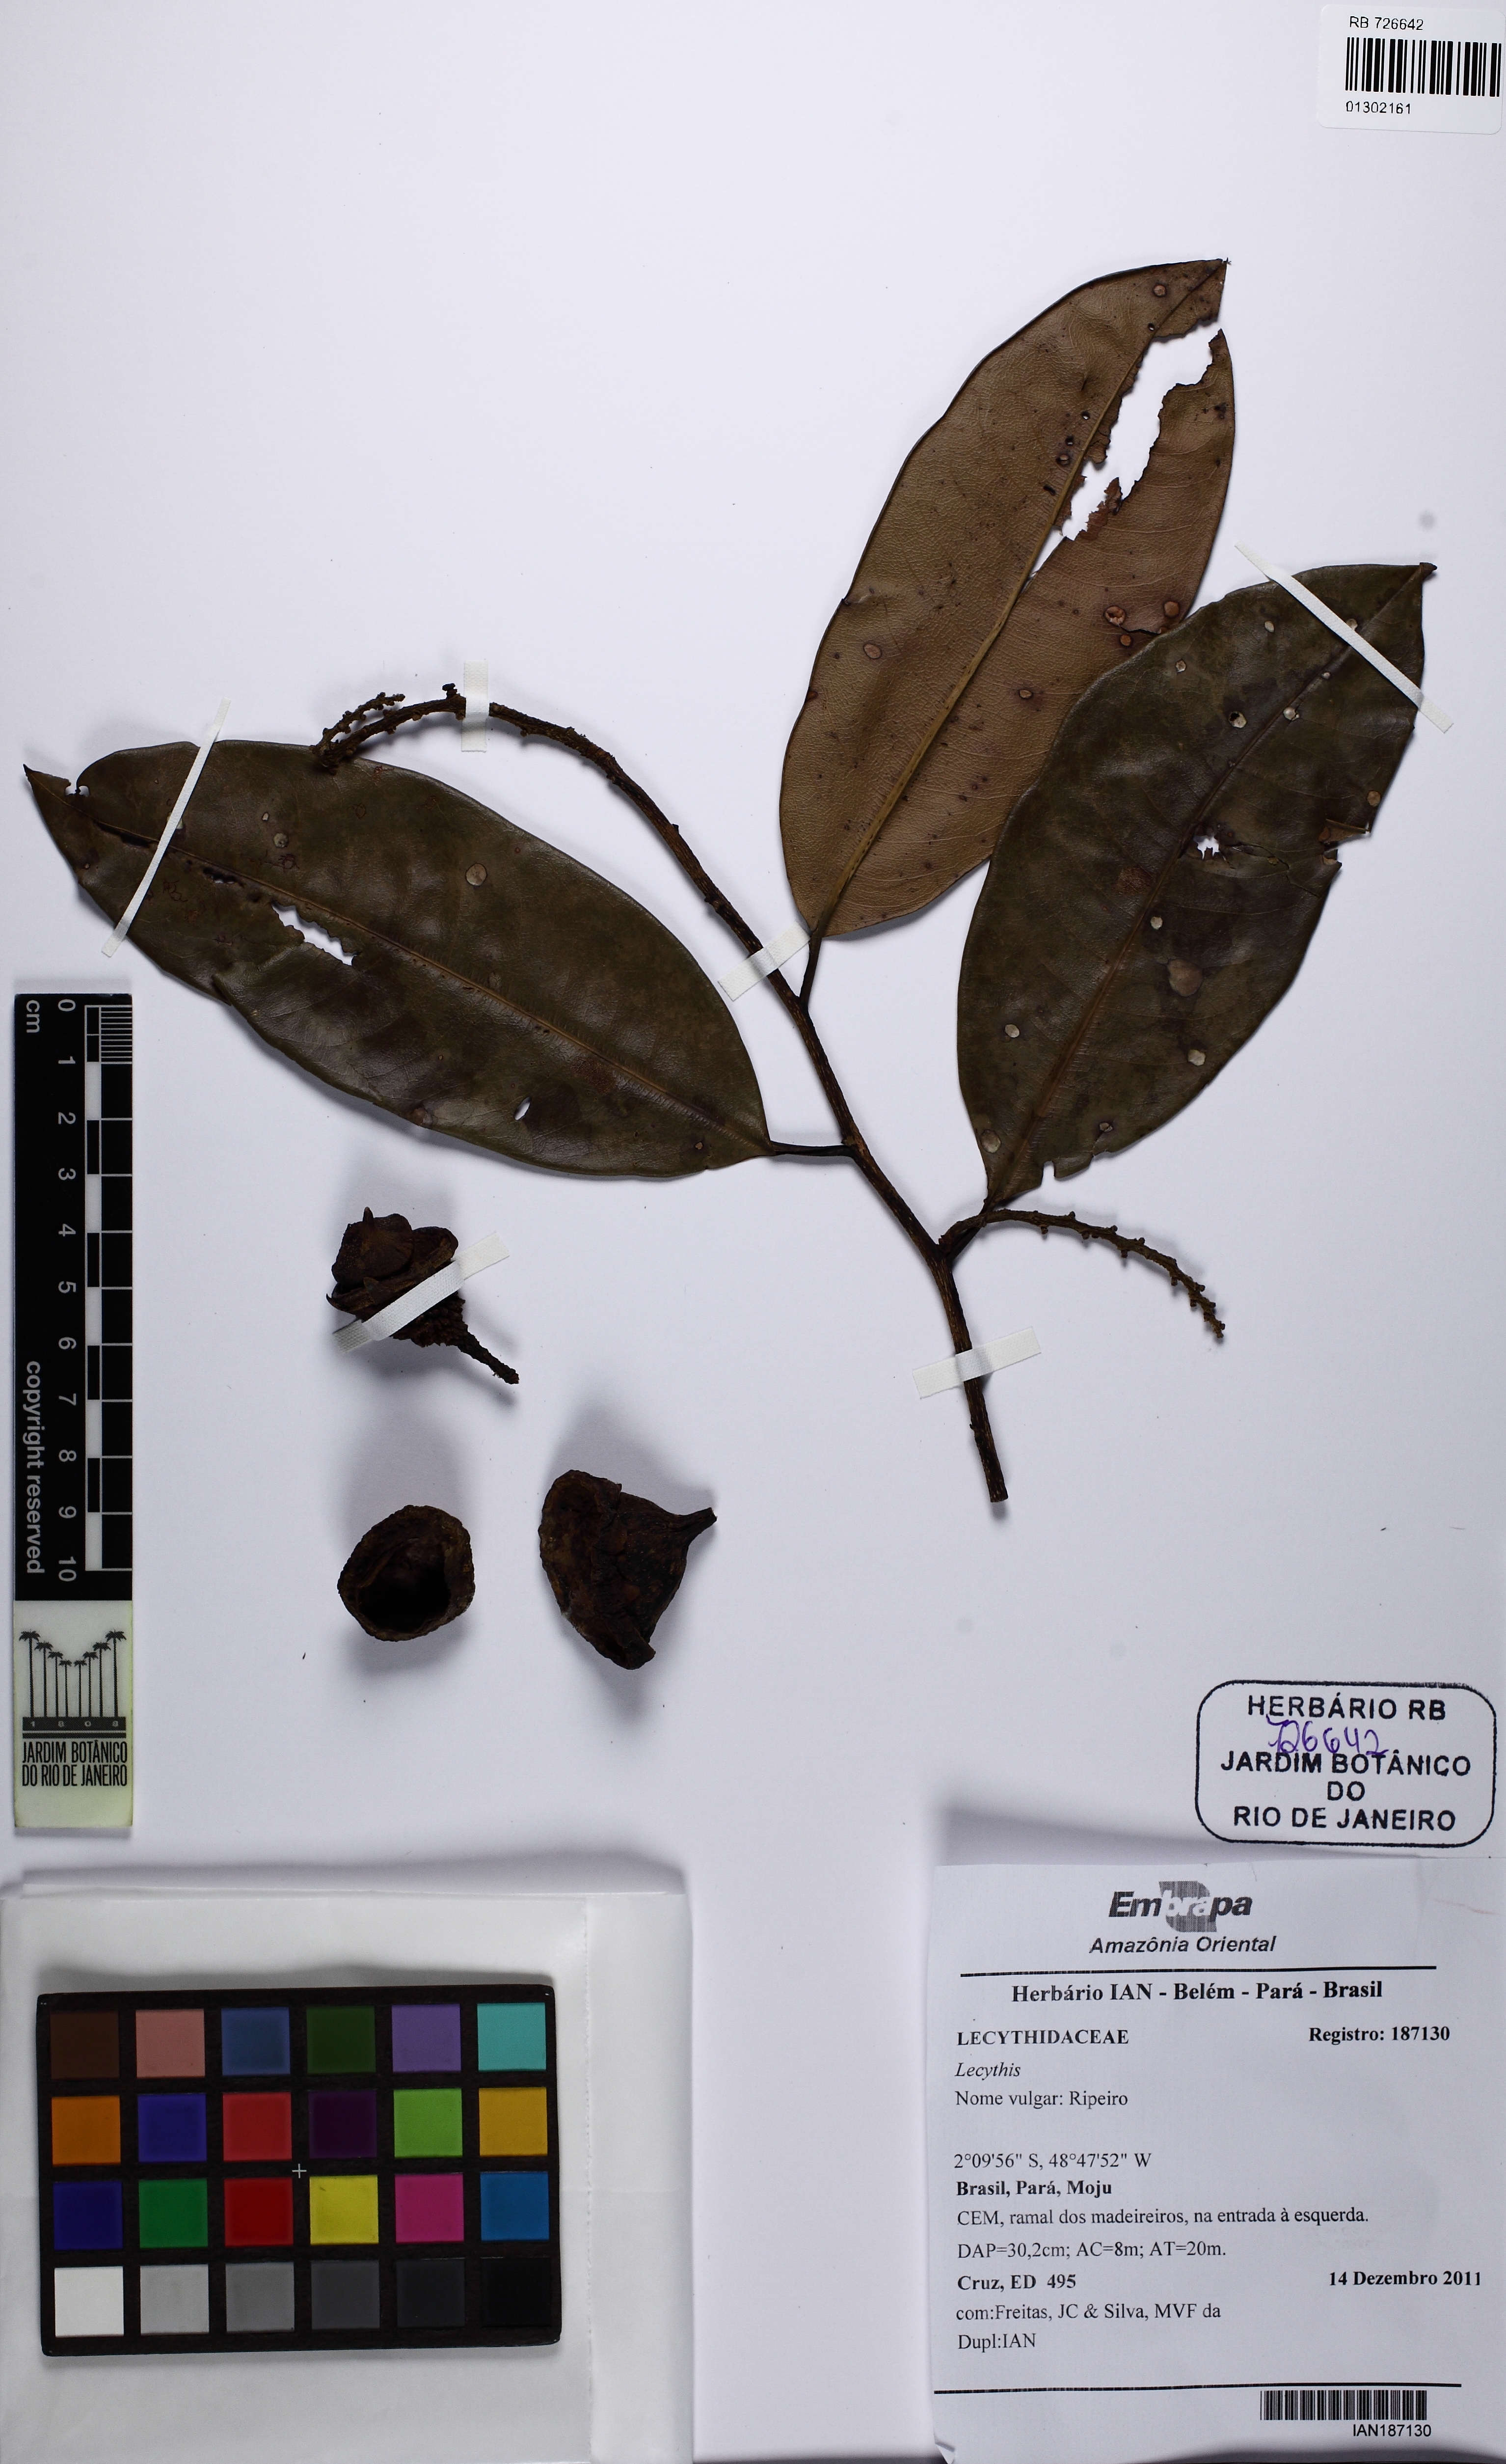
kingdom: Plantae
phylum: Tracheophyta
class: Magnoliopsida
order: Ericales
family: Lecythidaceae
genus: Lecythis
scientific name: Lecythis idatimon
